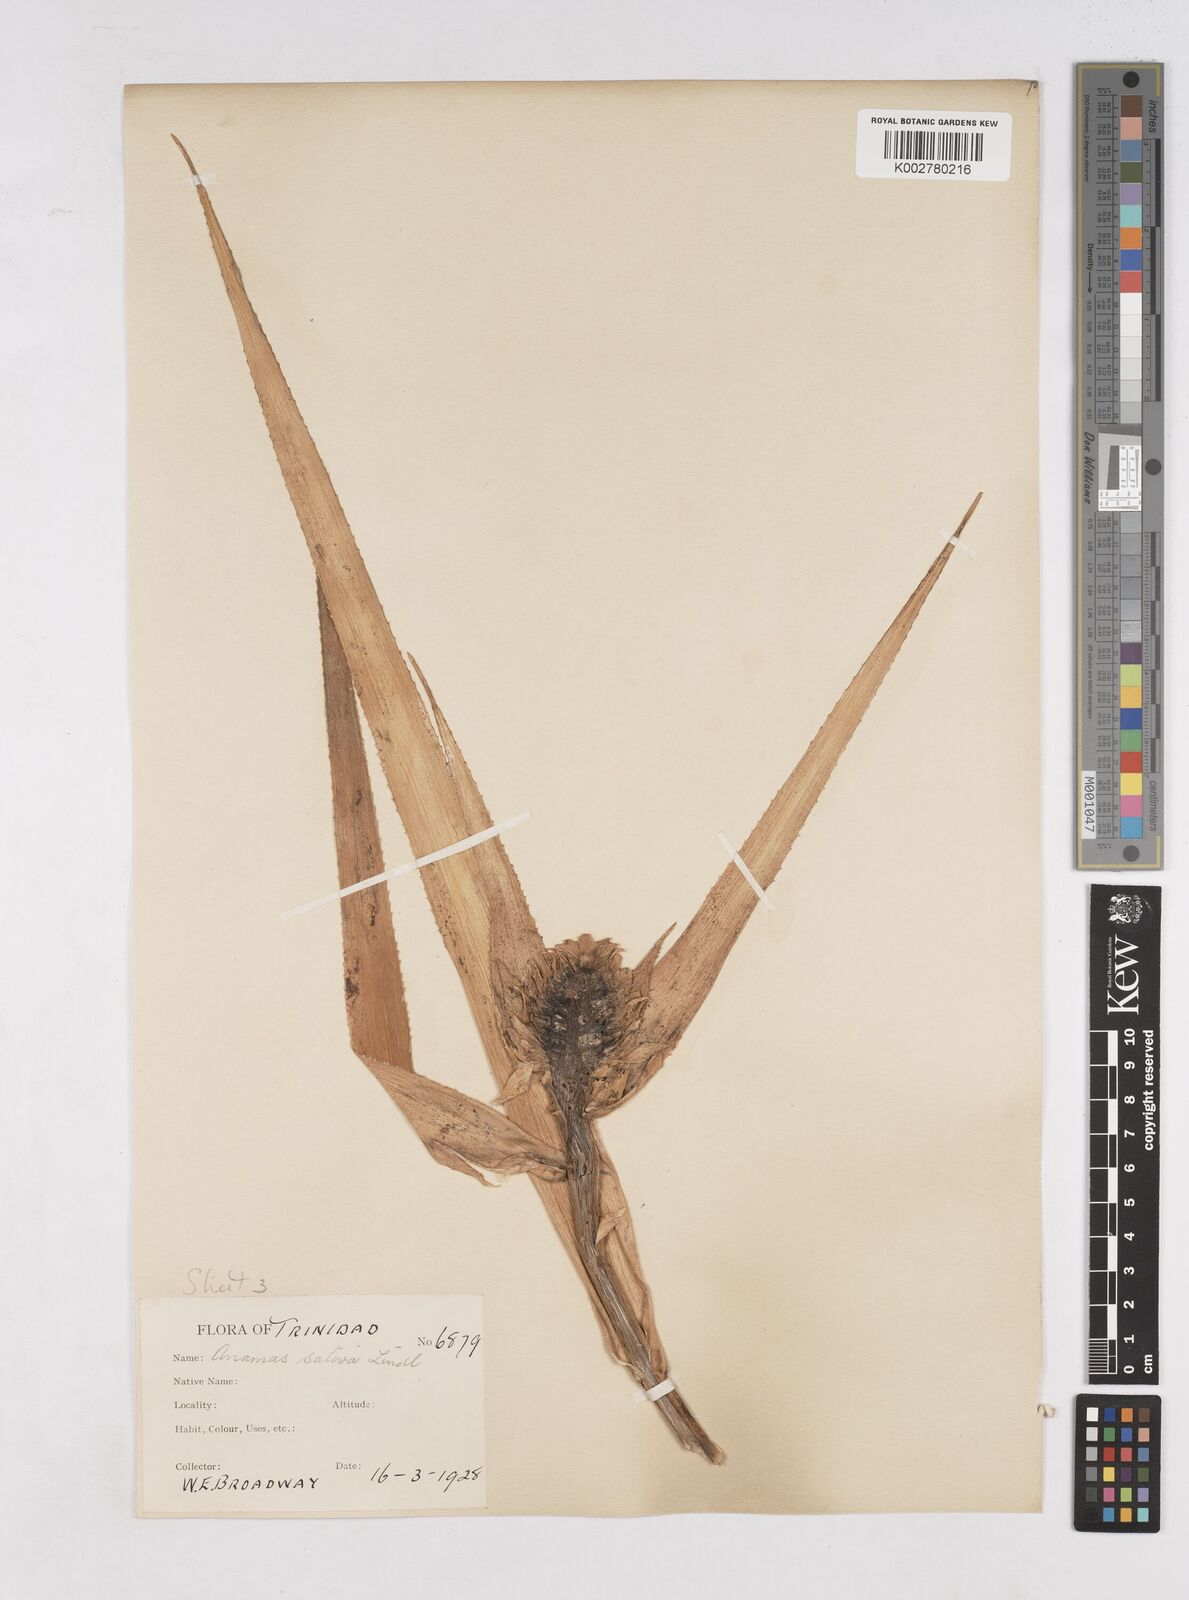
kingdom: Plantae
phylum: Tracheophyta
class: Liliopsida
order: Poales
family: Bromeliaceae
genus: Ananas
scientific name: Ananas comosus
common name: Pineapple
